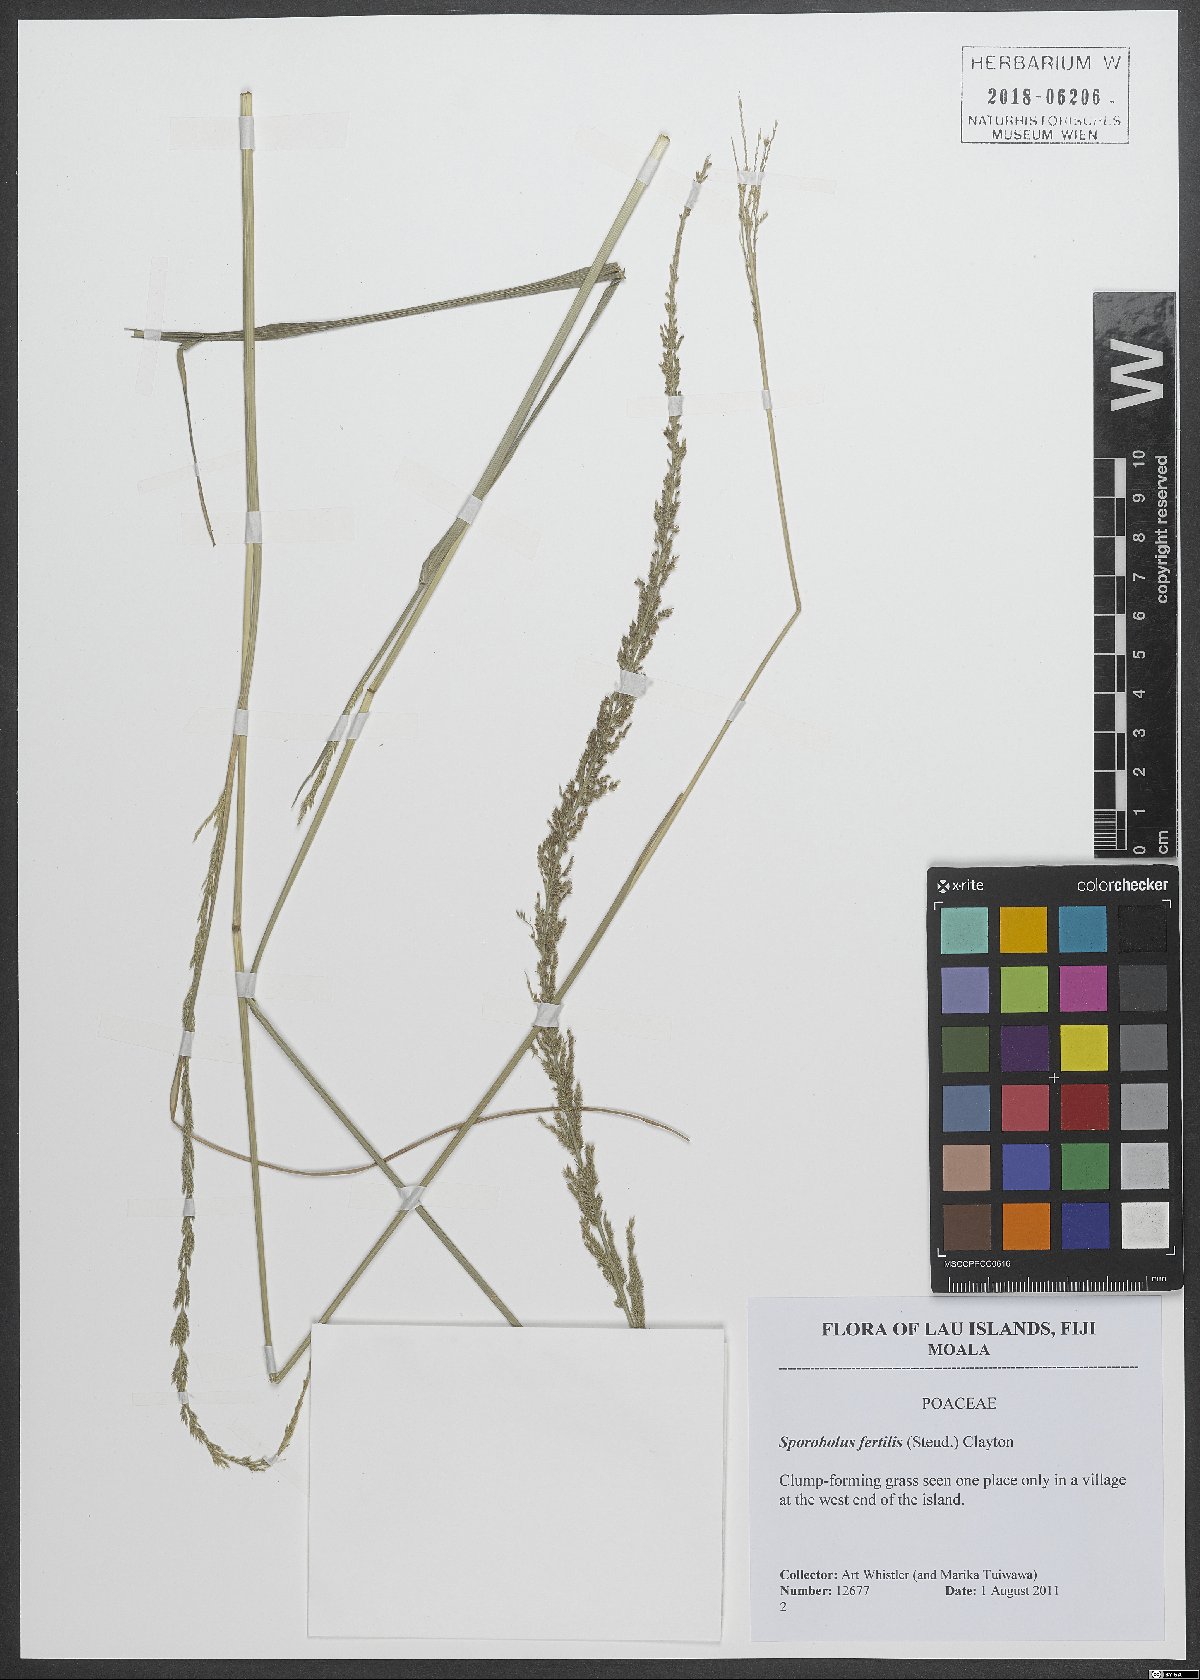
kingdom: Plantae
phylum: Tracheophyta
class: Liliopsida
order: Poales
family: Poaceae
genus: Sporobolus
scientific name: Sporobolus fertilis
